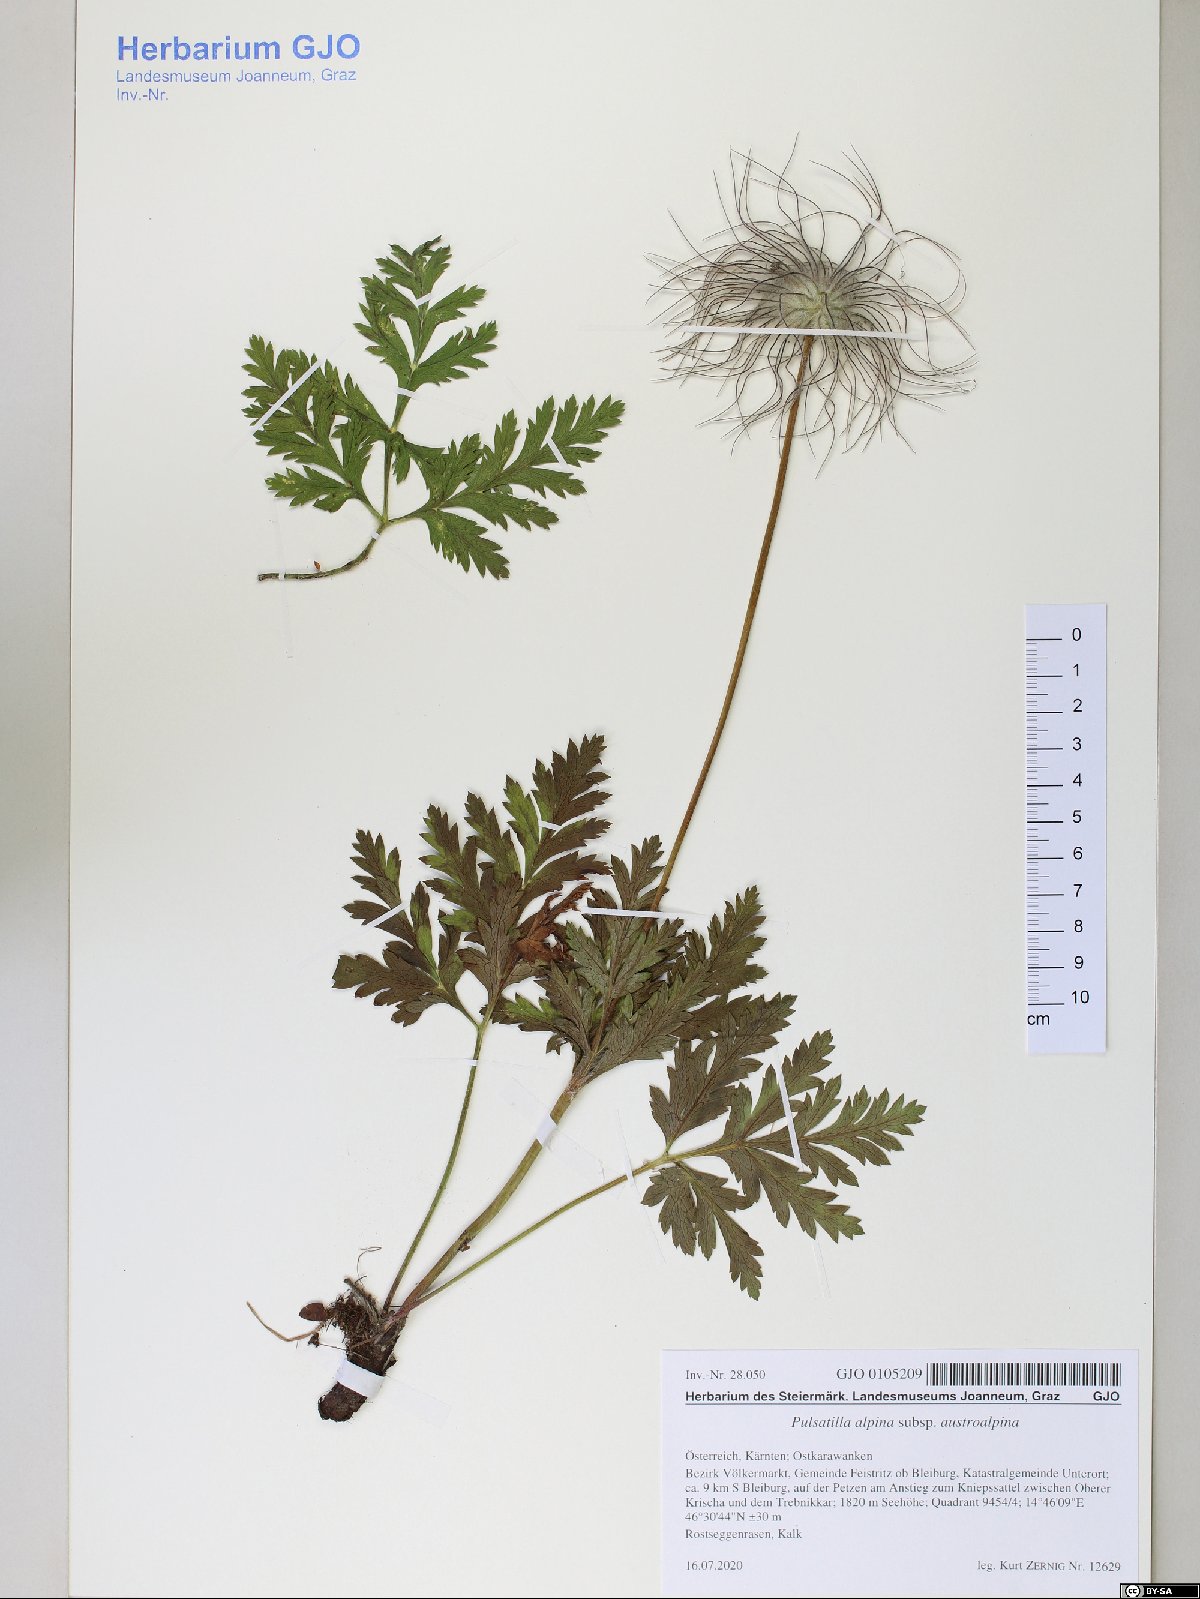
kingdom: Plantae
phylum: Tracheophyta
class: Magnoliopsida
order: Ranunculales
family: Ranunculaceae
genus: Pulsatilla
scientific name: Pulsatilla alpina
